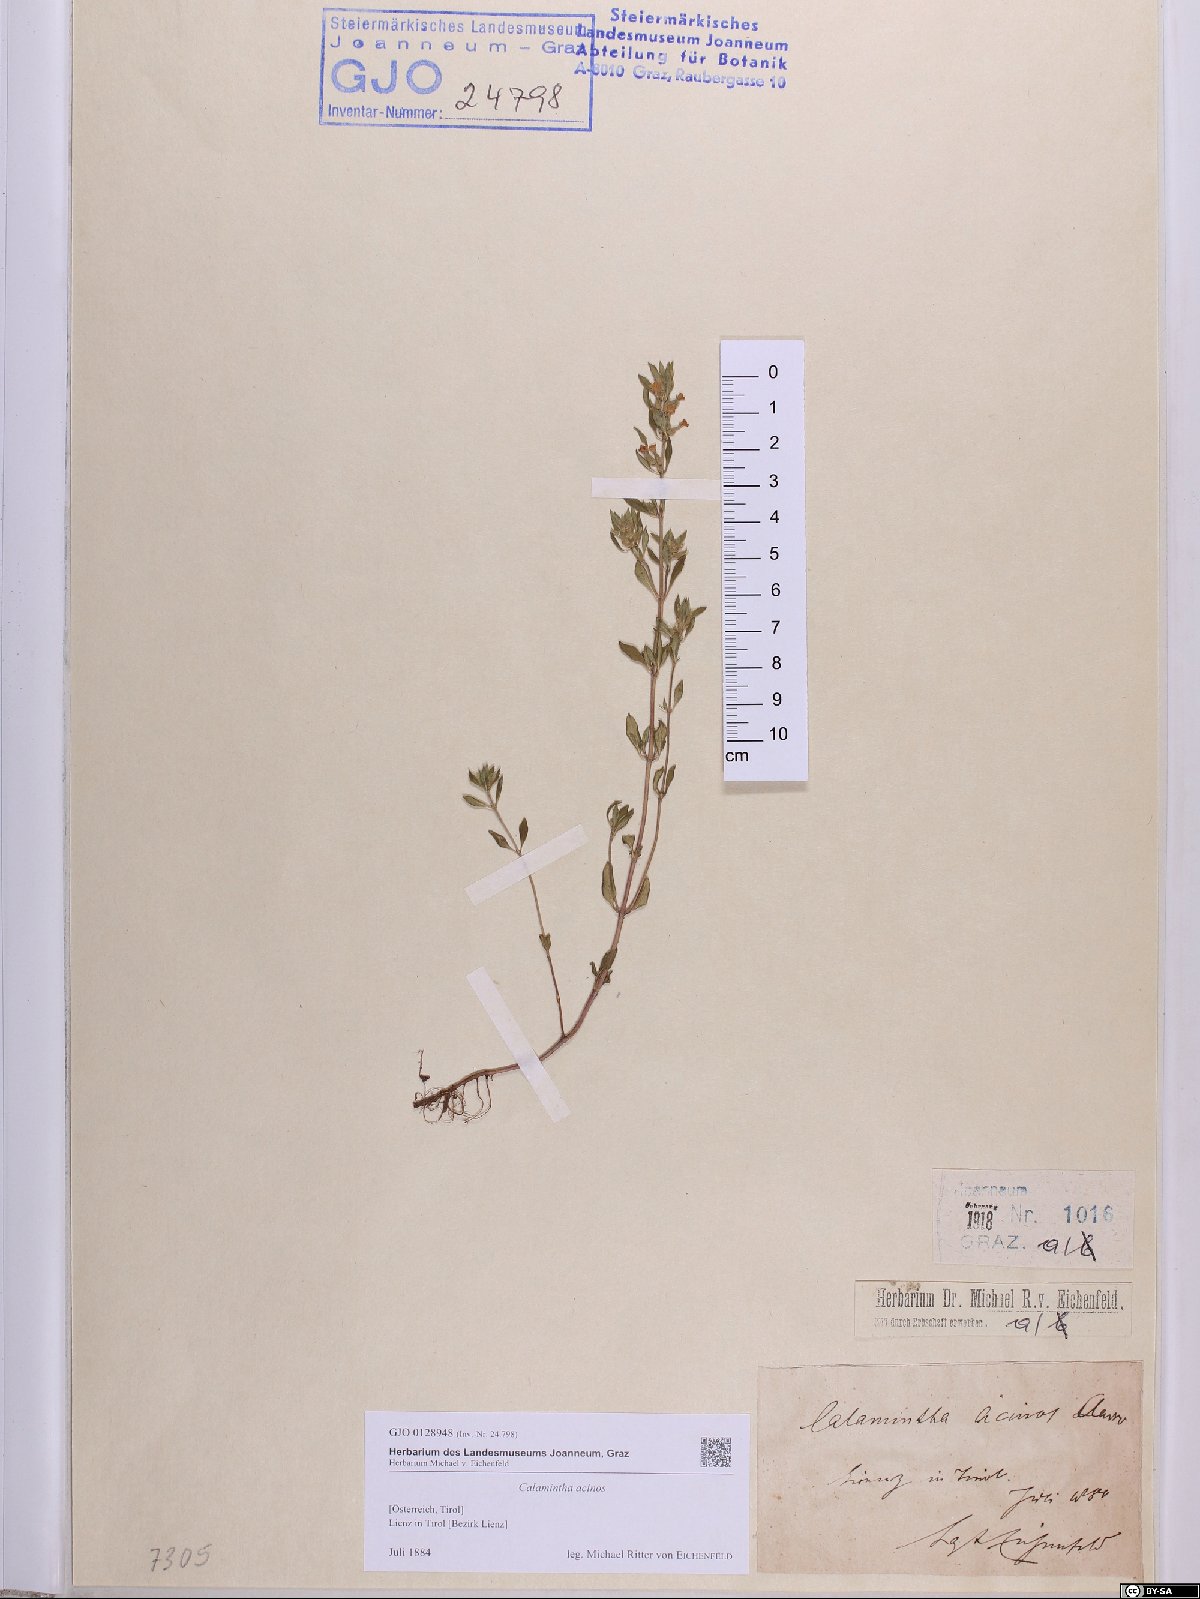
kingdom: Plantae
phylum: Tracheophyta
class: Magnoliopsida
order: Lamiales
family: Lamiaceae
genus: Clinopodium
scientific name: Clinopodium acinos
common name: Basil thyme
